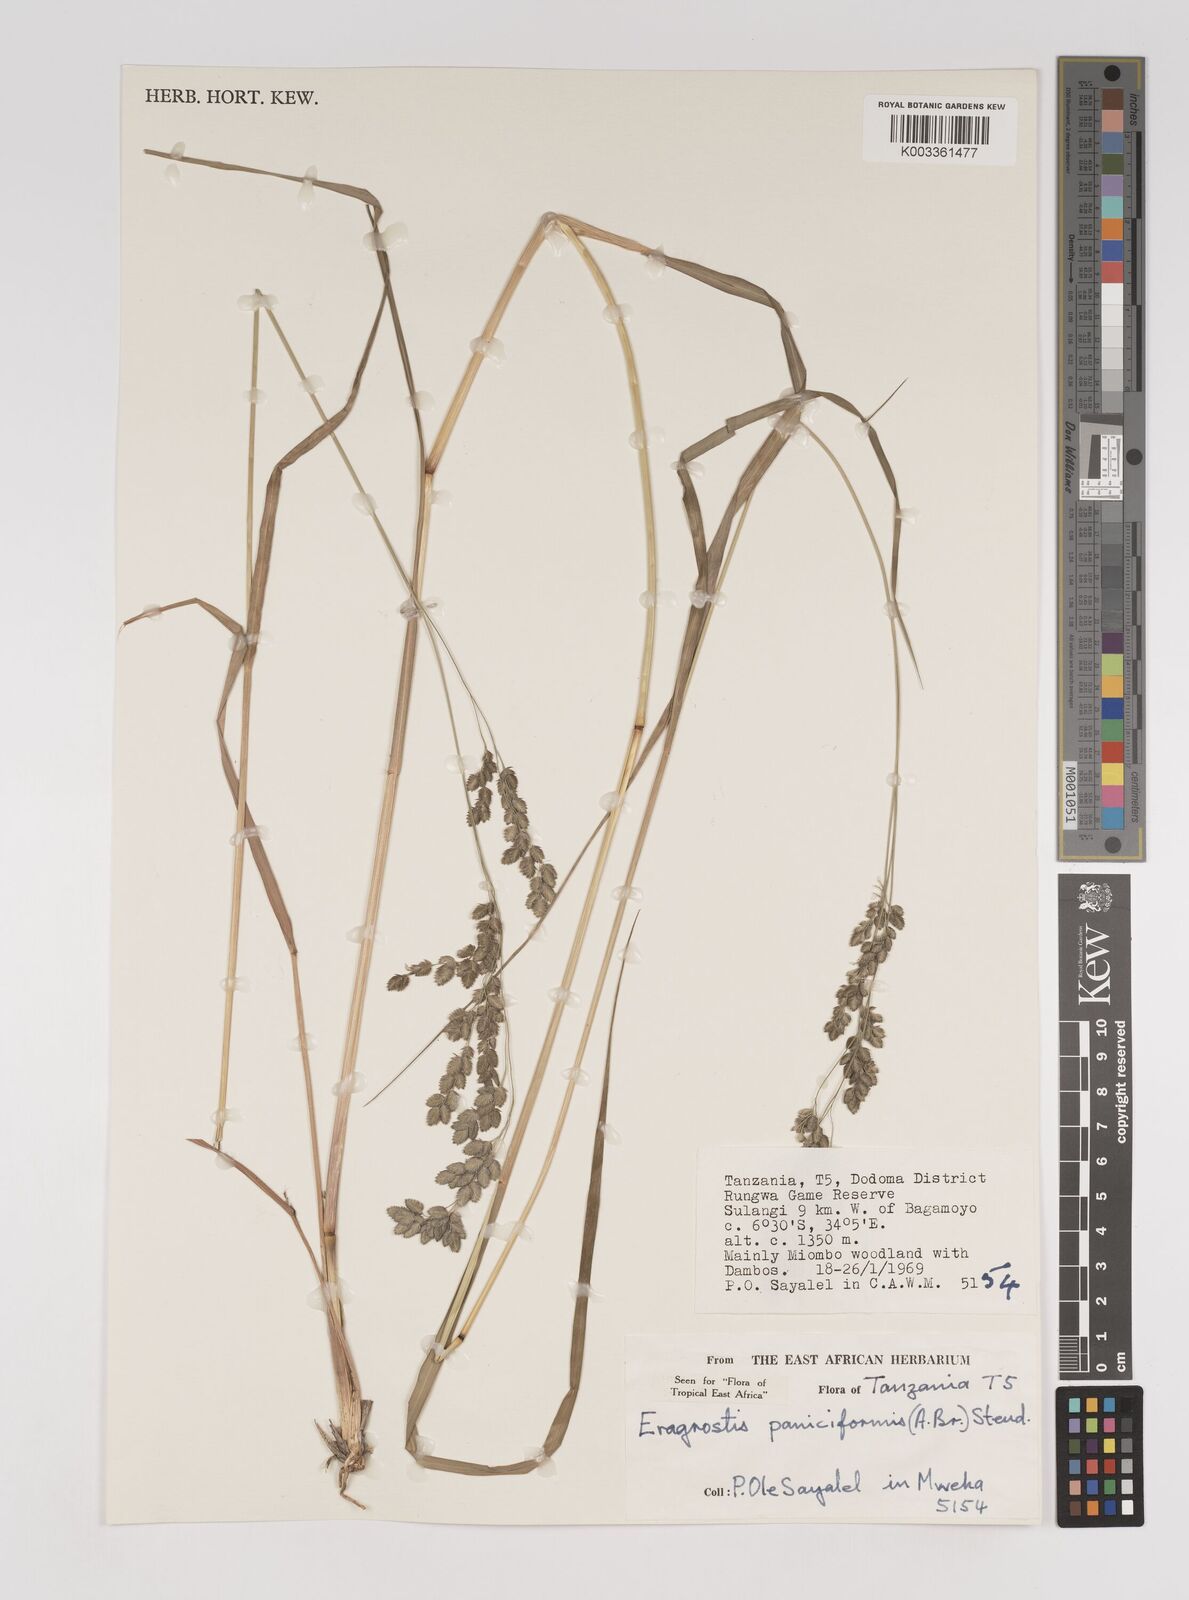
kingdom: Plantae
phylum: Tracheophyta
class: Liliopsida
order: Poales
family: Poaceae
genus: Eragrostis
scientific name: Eragrostis paniciformis
